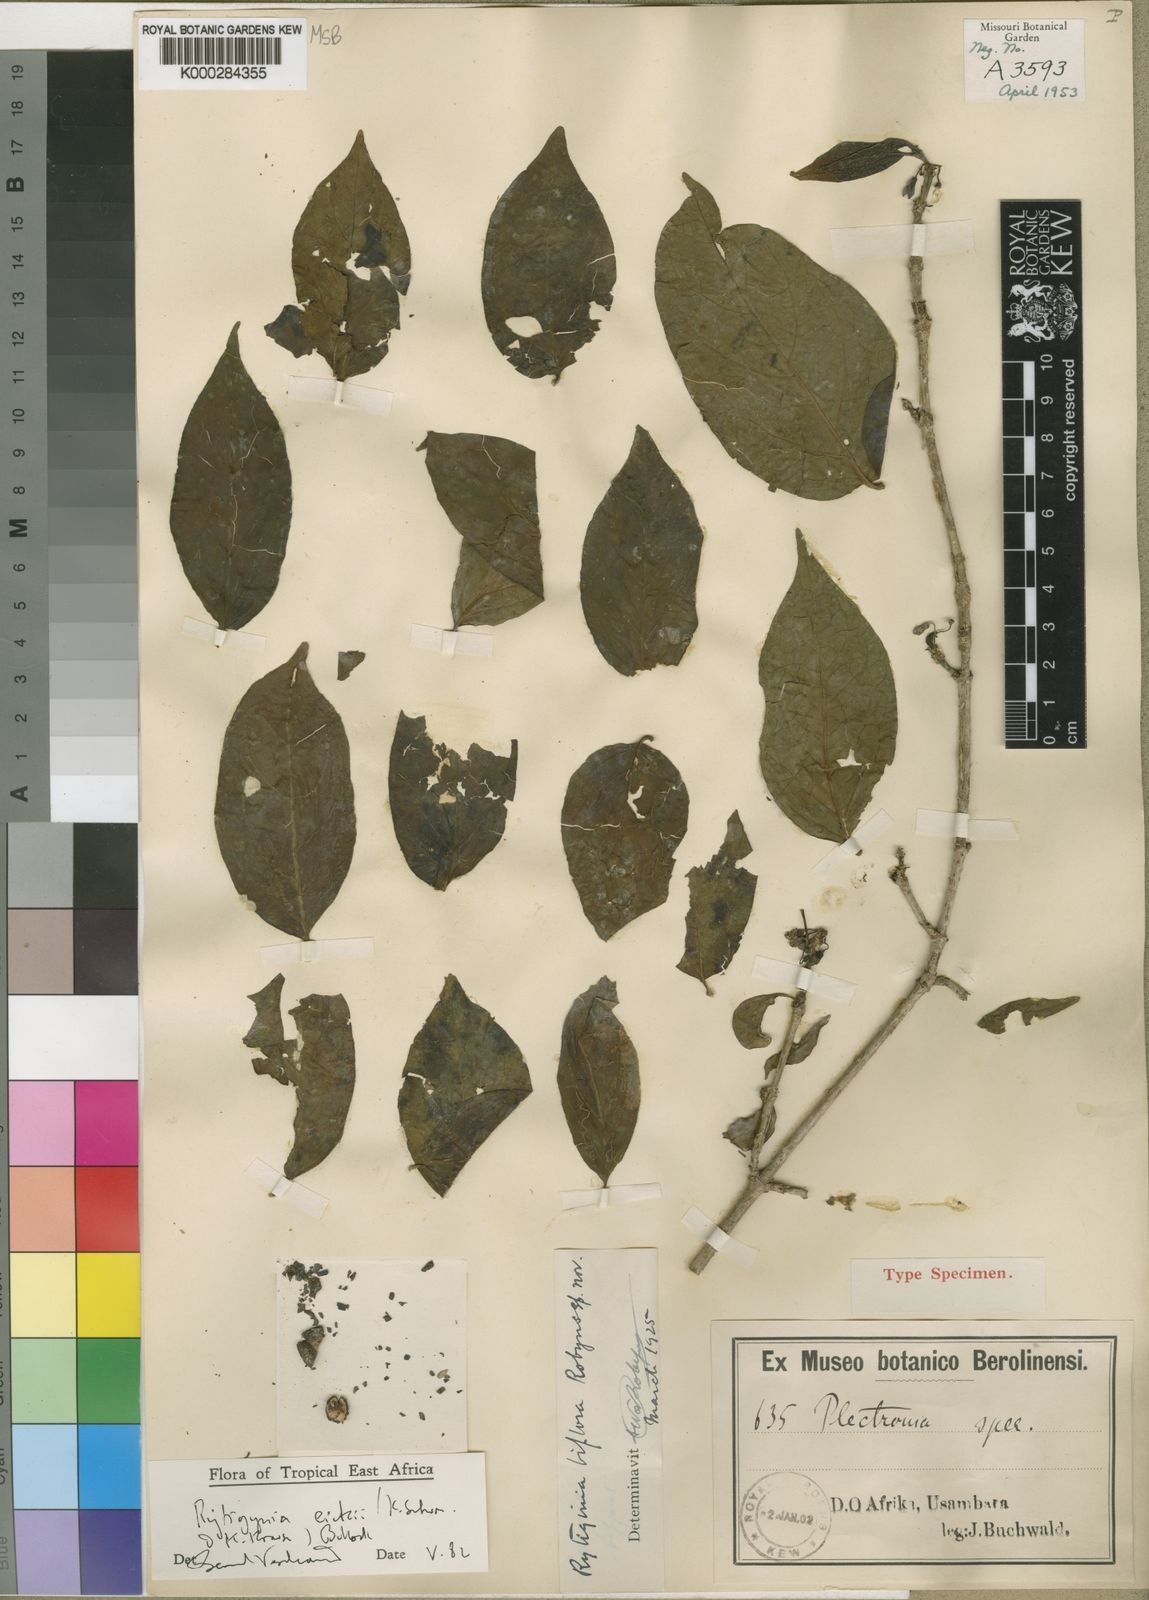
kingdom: Plantae
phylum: Tracheophyta
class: Magnoliopsida
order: Gentianales
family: Rubiaceae
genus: Rytigynia
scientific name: Rytigynia eickii
